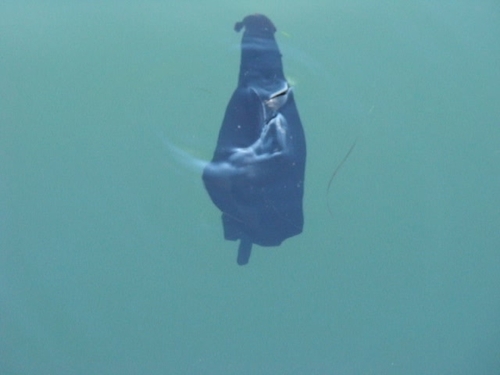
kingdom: Animalia
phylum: Mollusca
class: Gastropoda
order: Aplysiida
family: Aplysiidae
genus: Aplysia
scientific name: Aplysia fasciata
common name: Banded sea hare
